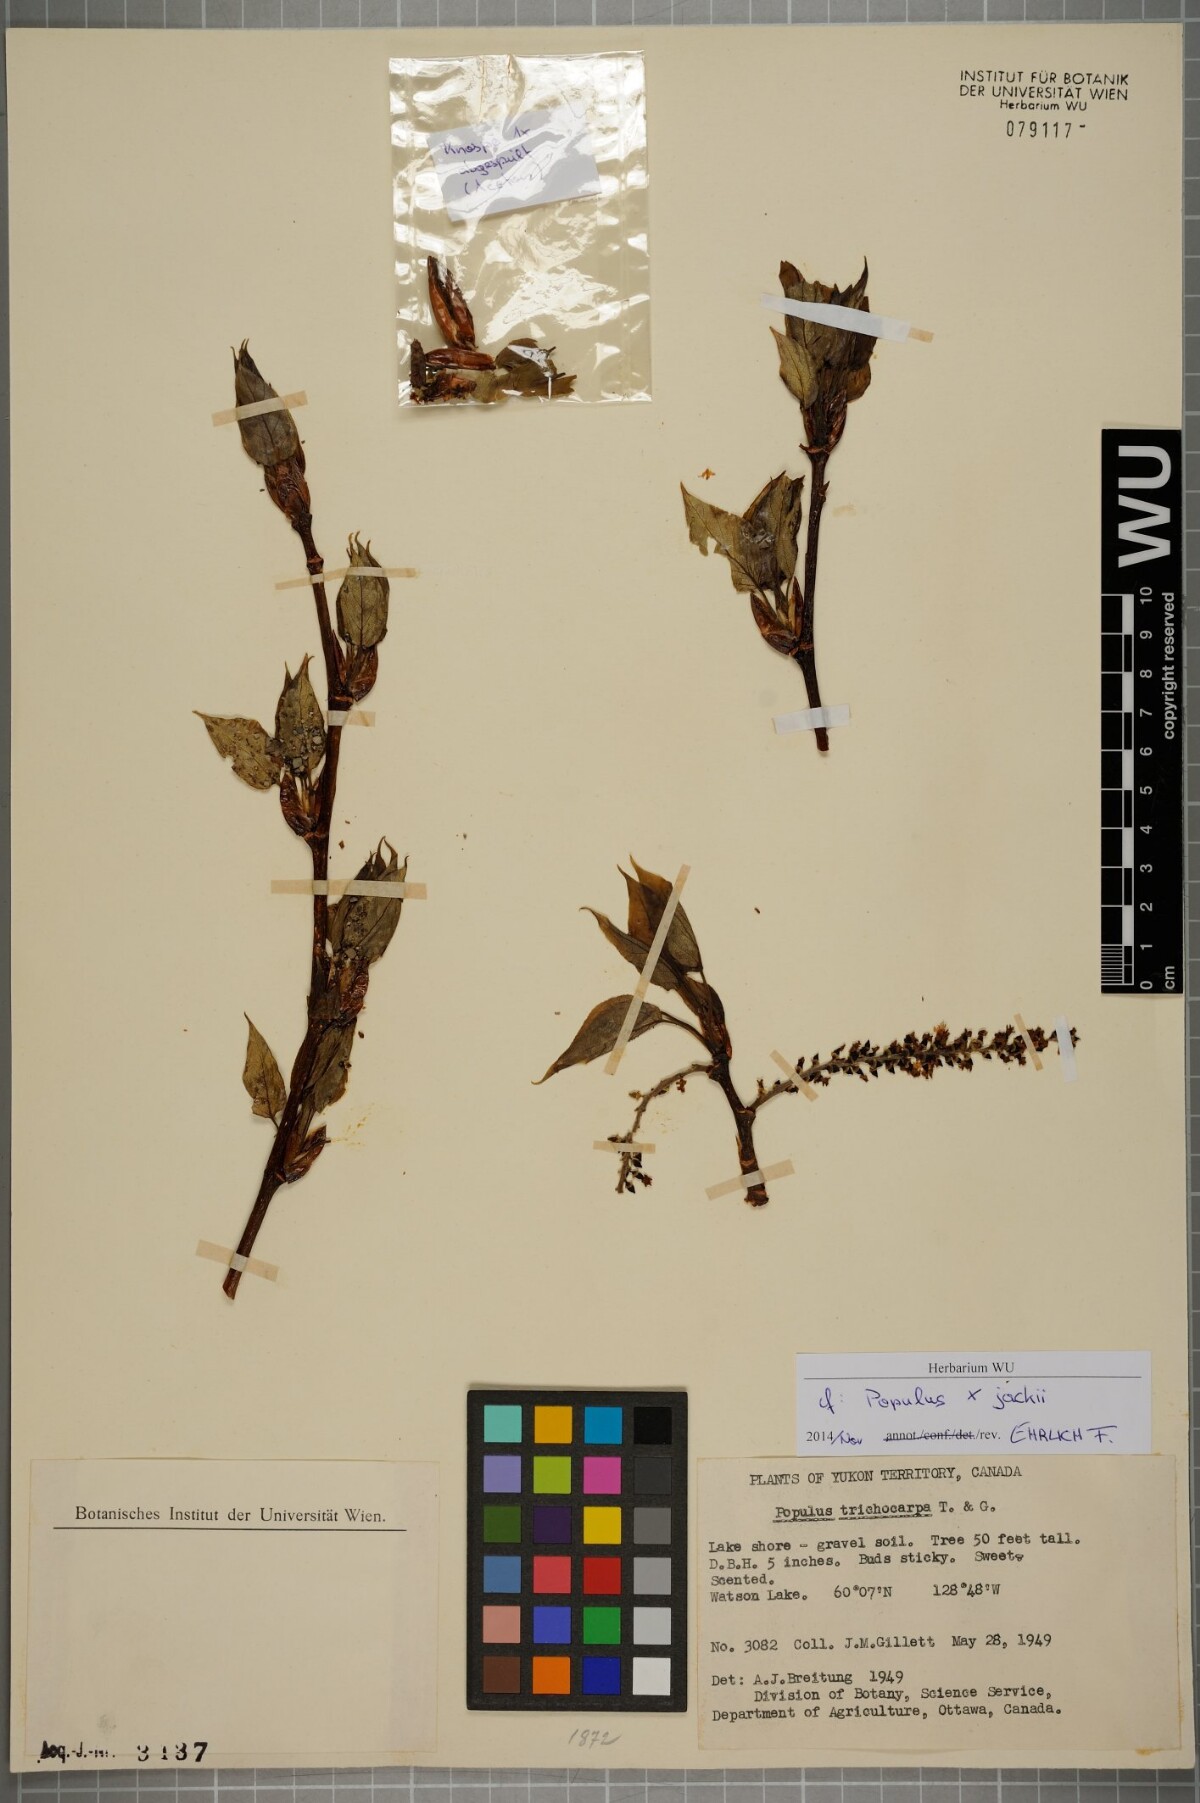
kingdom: Plantae
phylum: Tracheophyta
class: Magnoliopsida
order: Malpighiales
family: Salicaceae
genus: Populus
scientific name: Populus jackii
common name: Balm-of-gilead
